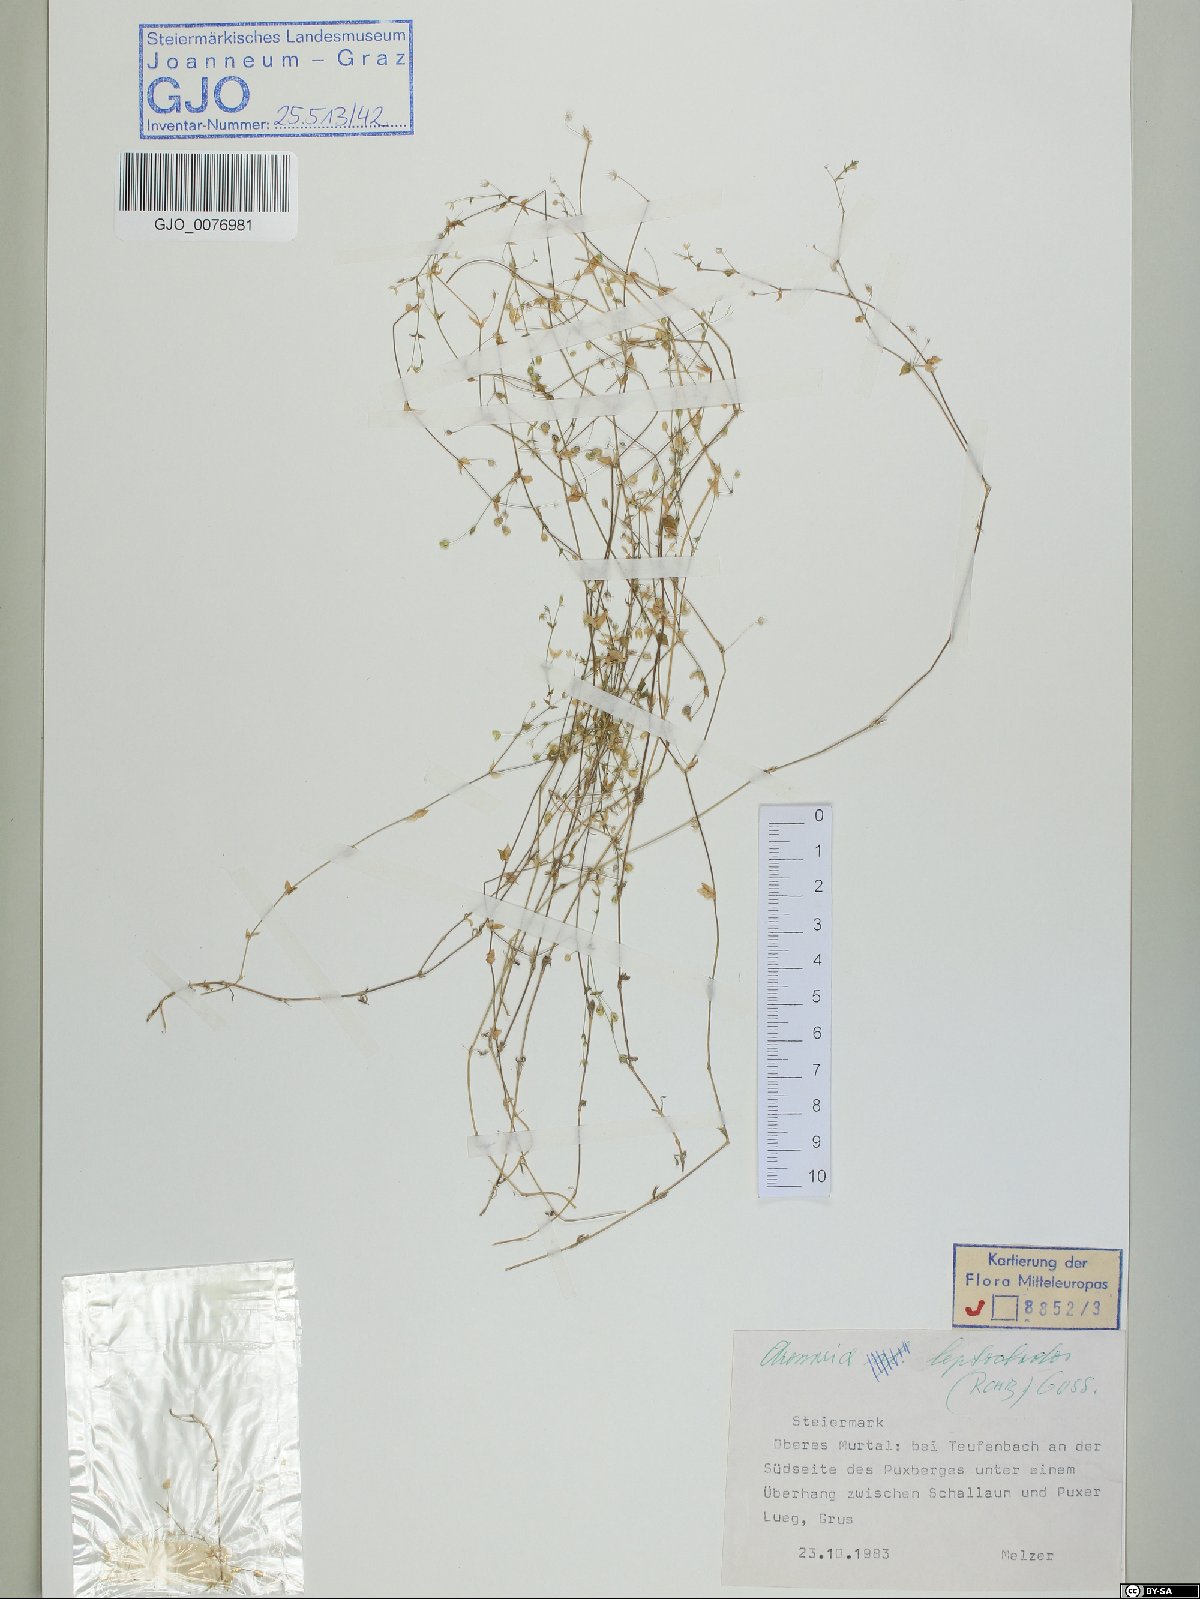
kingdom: Plantae
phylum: Tracheophyta
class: Magnoliopsida
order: Caryophyllales
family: Caryophyllaceae
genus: Arenaria
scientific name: Arenaria leptoclados
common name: Thyme-leaved sandwort
